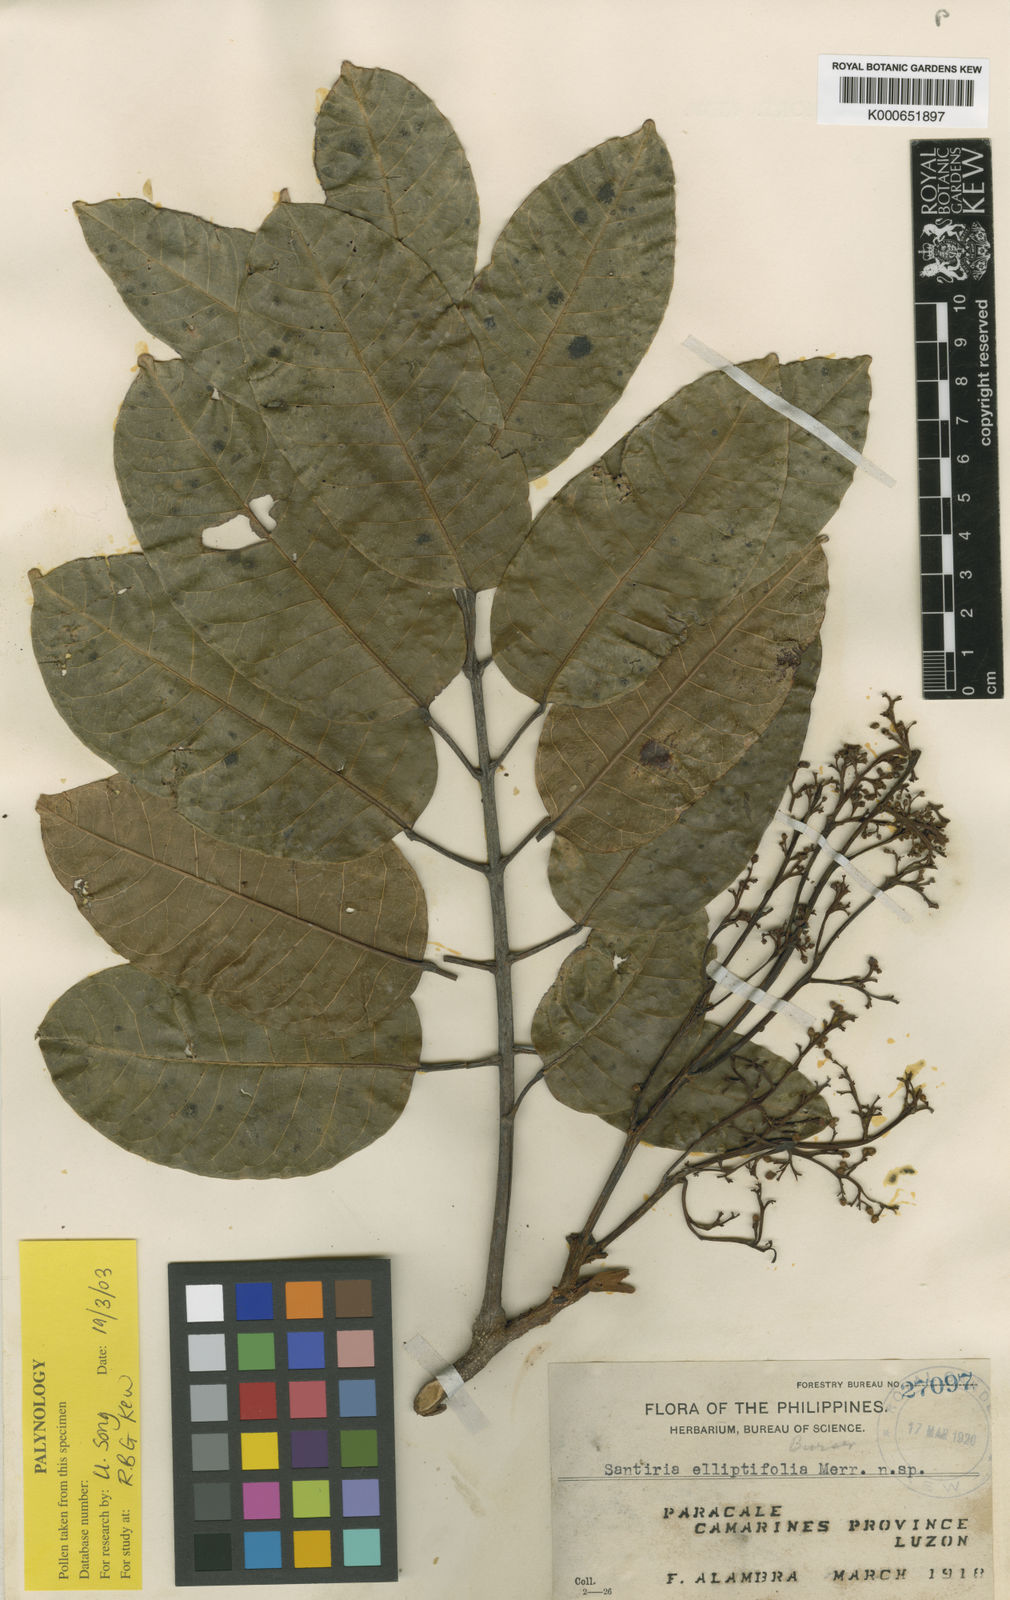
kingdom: Plantae
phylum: Tracheophyta
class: Magnoliopsida
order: Sapindales
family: Burseraceae
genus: Dacryodes
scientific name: Dacryodes macrocarpa
